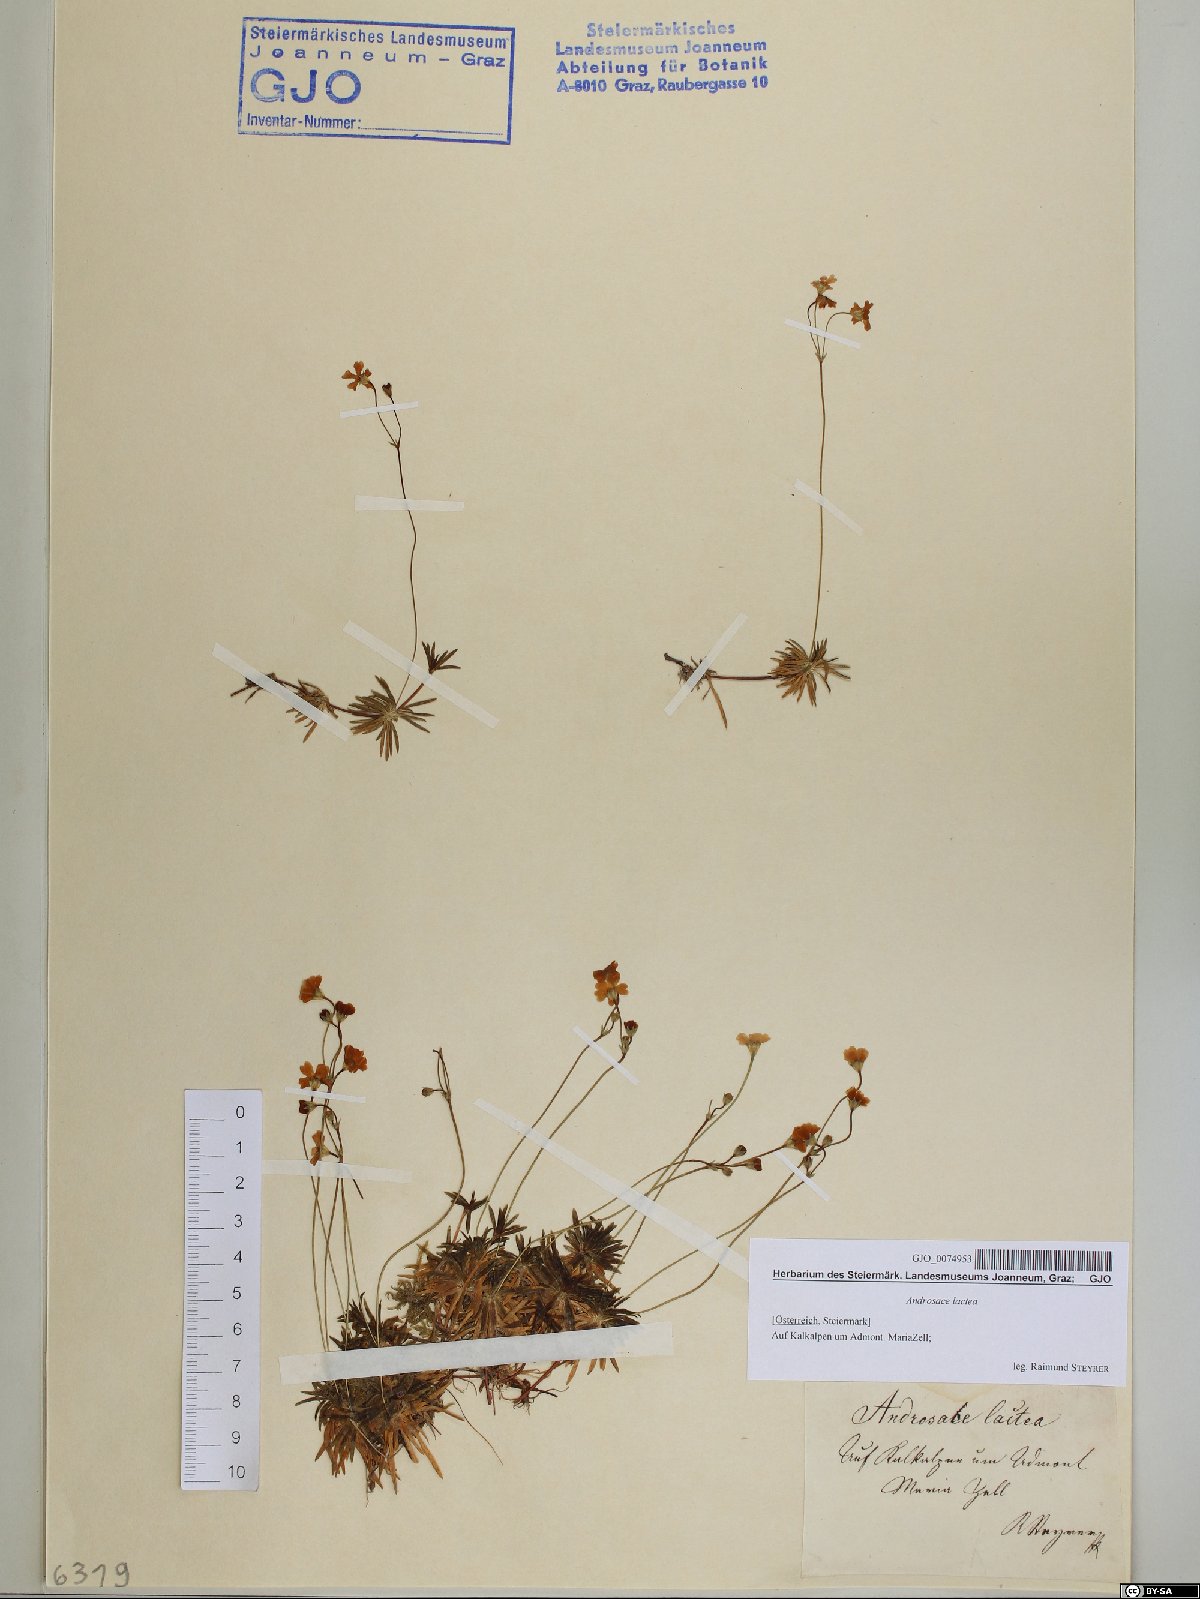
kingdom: Plantae
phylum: Tracheophyta
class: Magnoliopsida
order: Ericales
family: Primulaceae
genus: Androsace
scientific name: Androsace lactea
